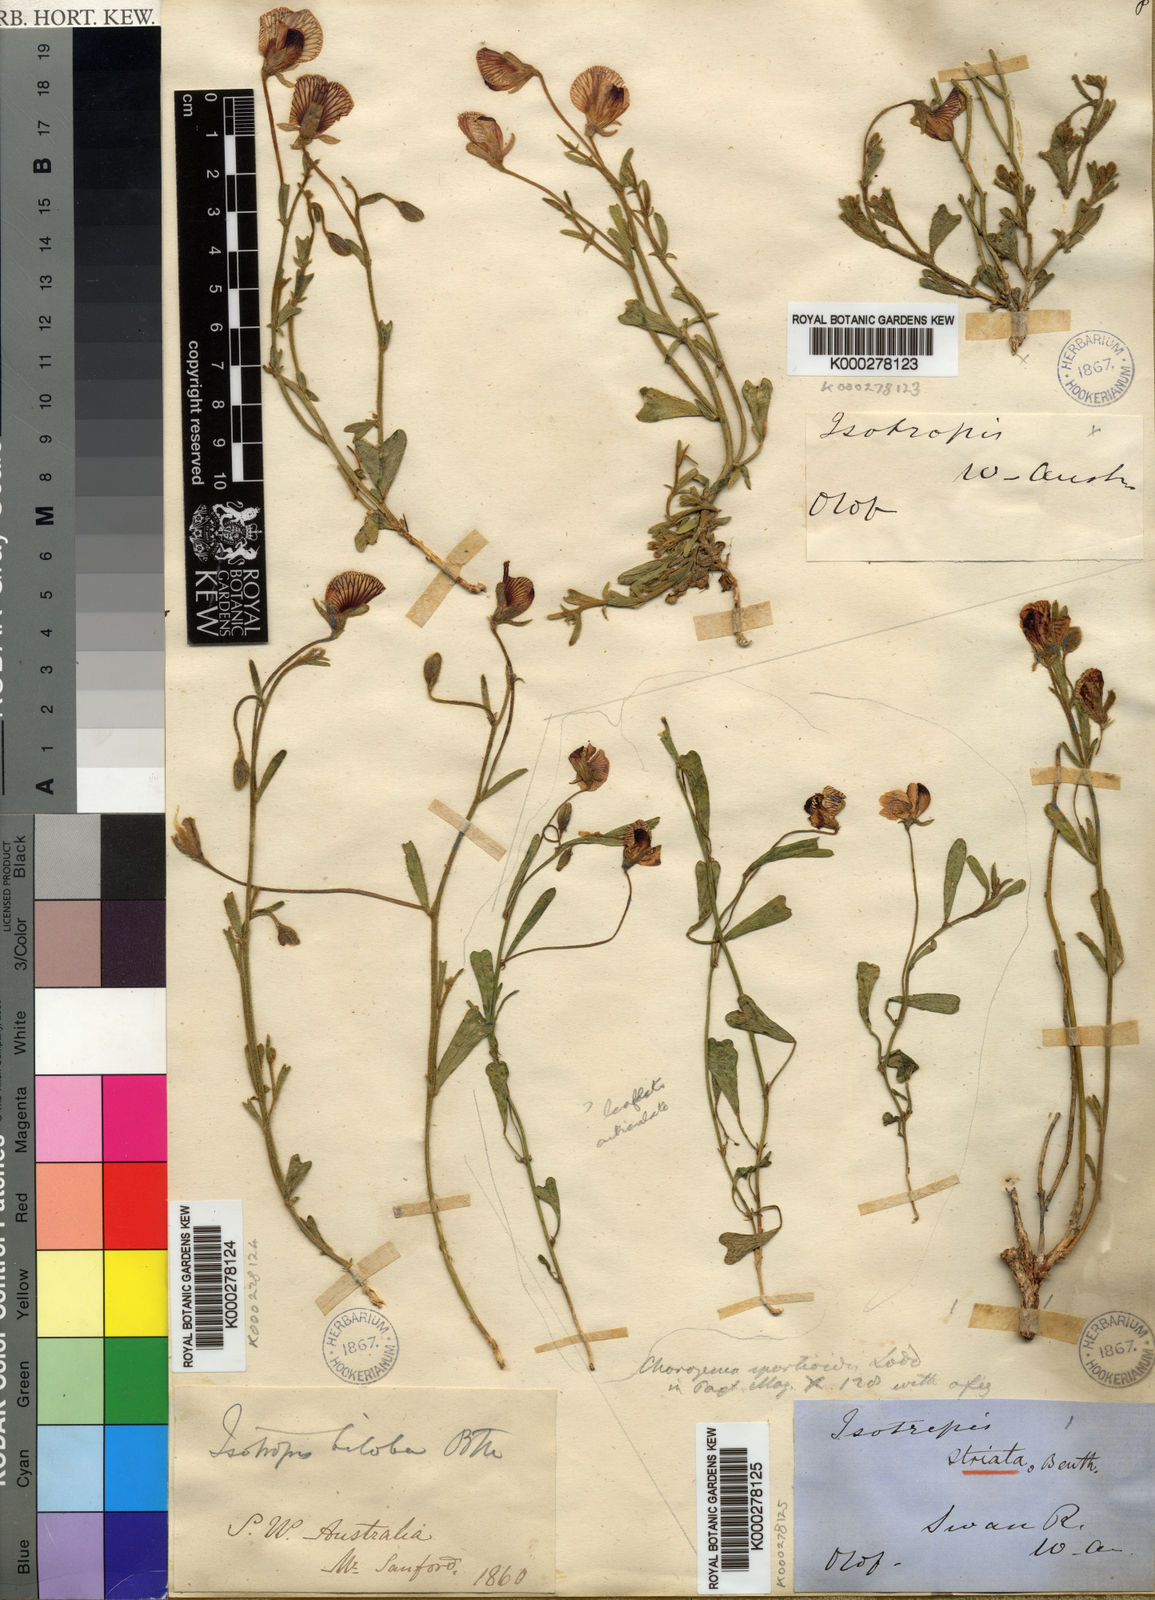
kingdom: Plantae
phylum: Tracheophyta
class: Magnoliopsida
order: Fabales
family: Fabaceae
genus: Isotropis
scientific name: Isotropis cuneifolia
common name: Granny bonnets
